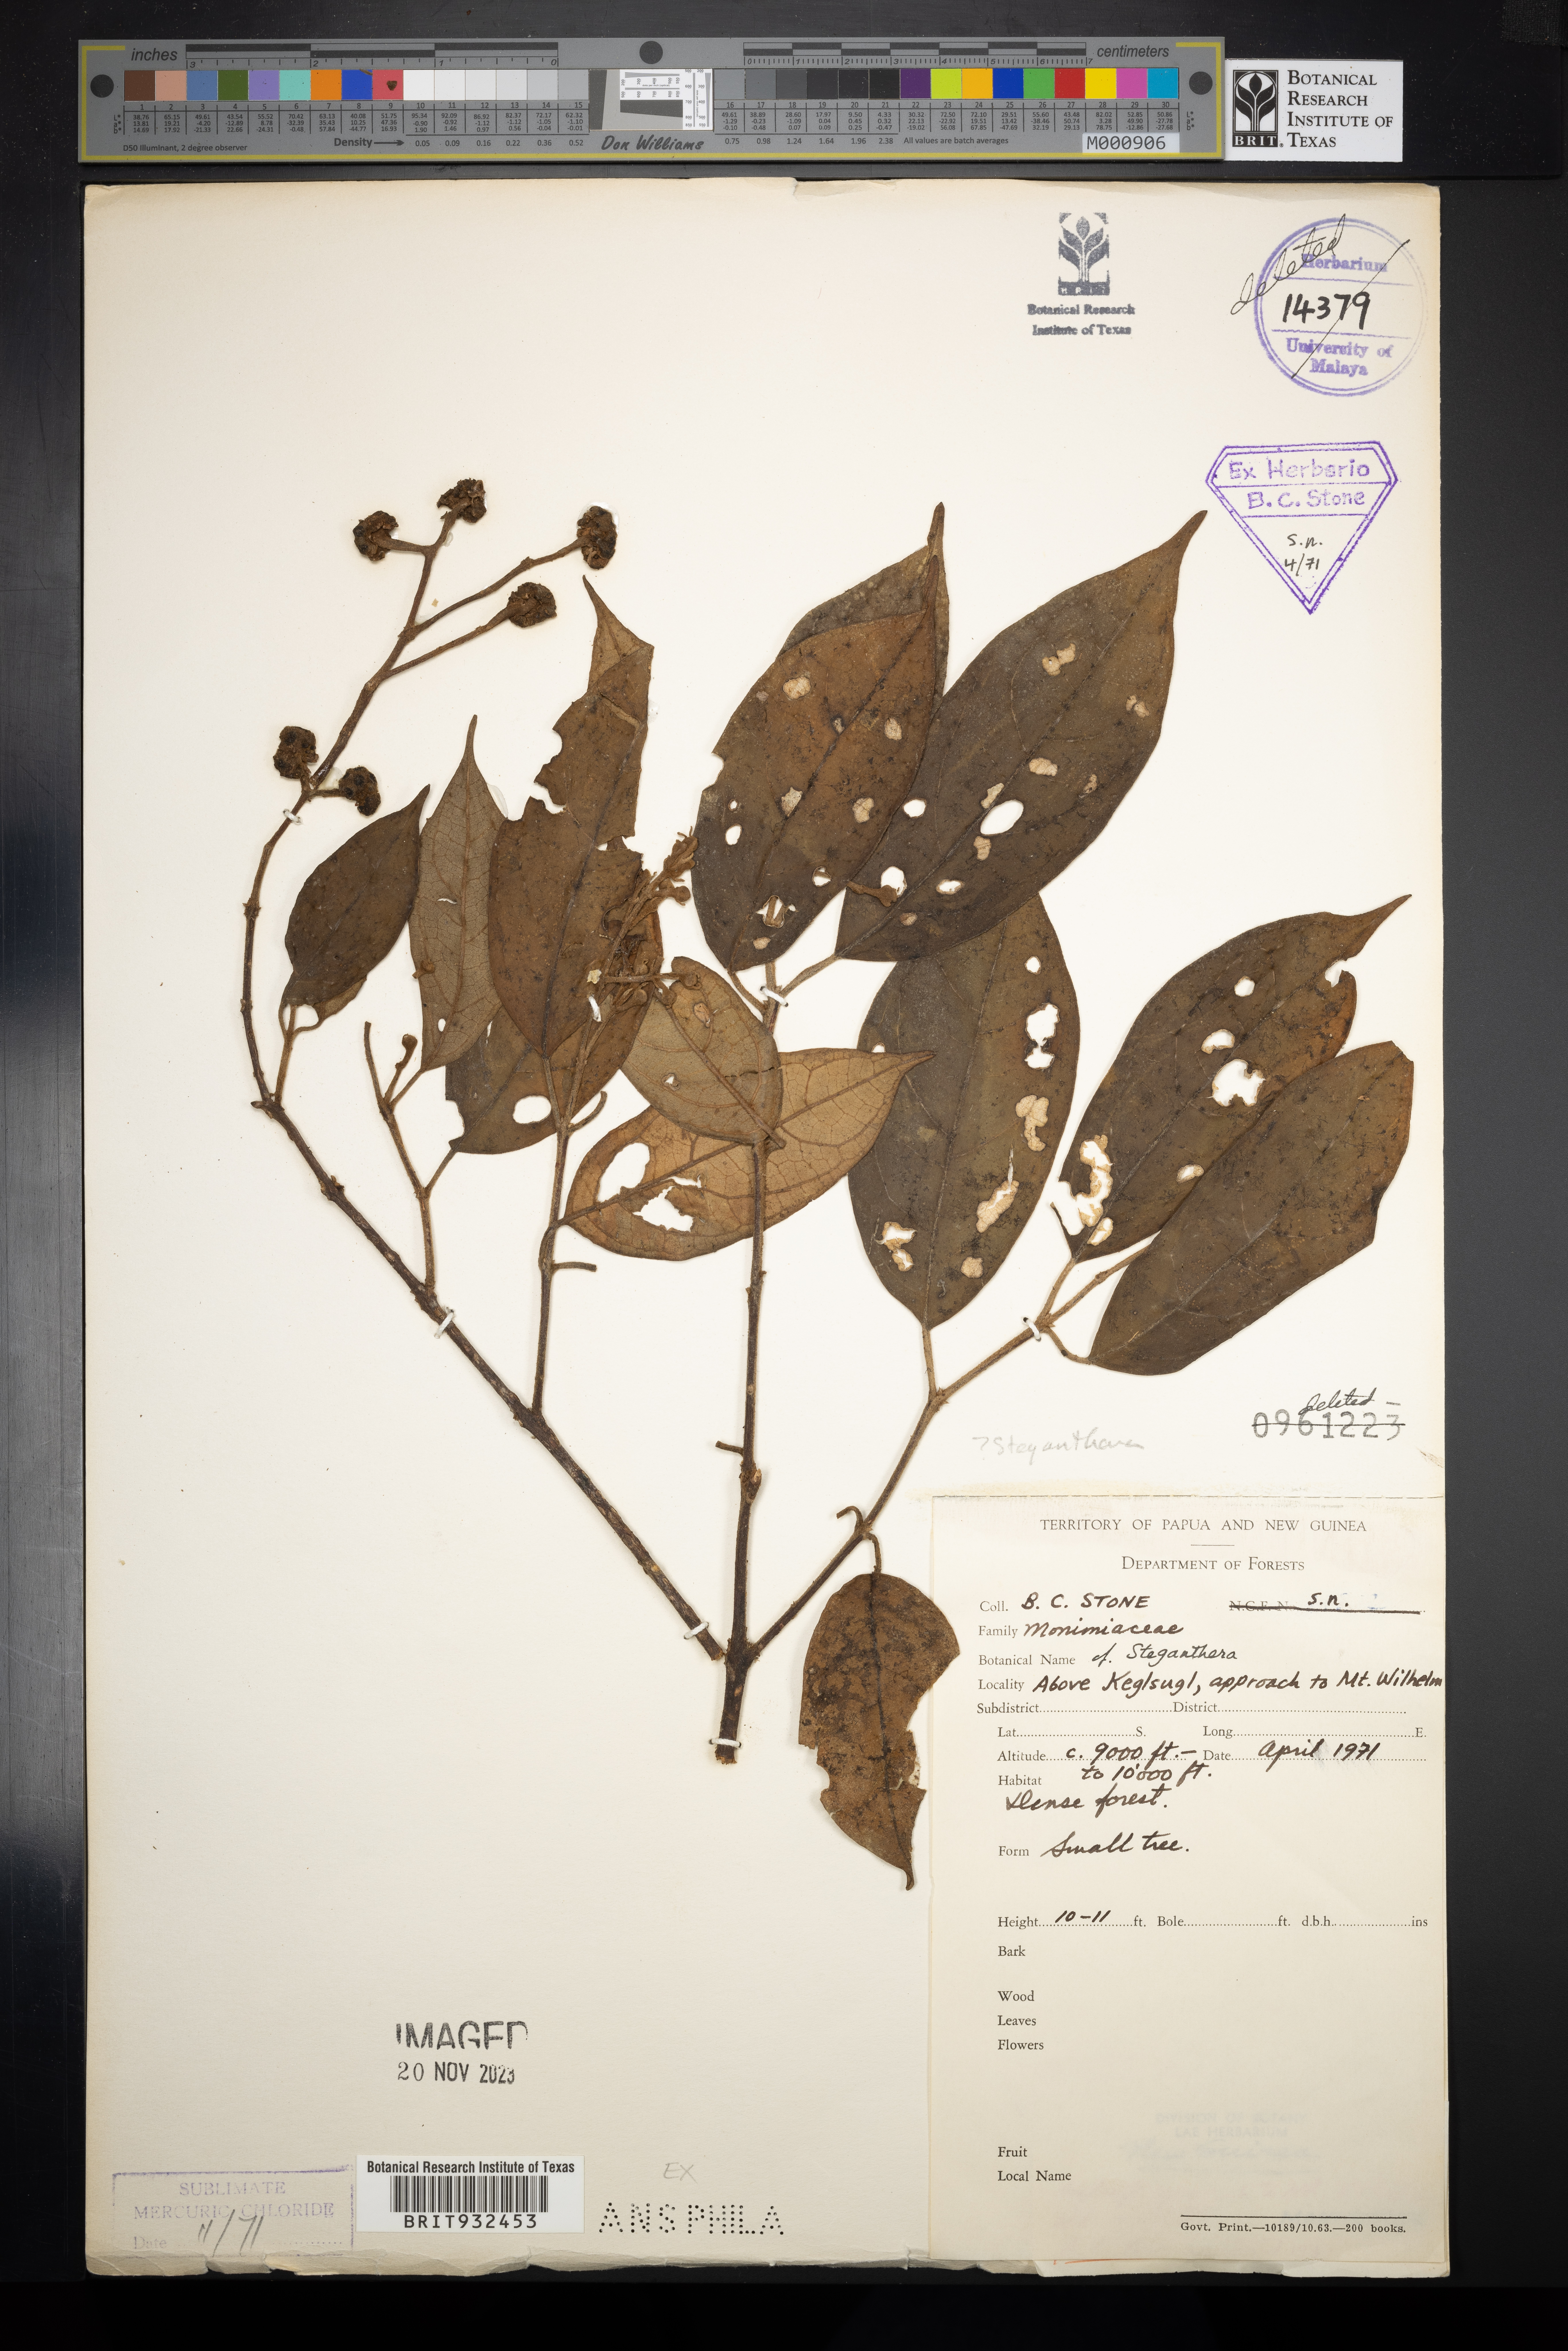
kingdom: Plantae
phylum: Tracheophyta
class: Magnoliopsida
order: Laurales
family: Monimiaceae
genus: Steganthera
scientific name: Steganthera
